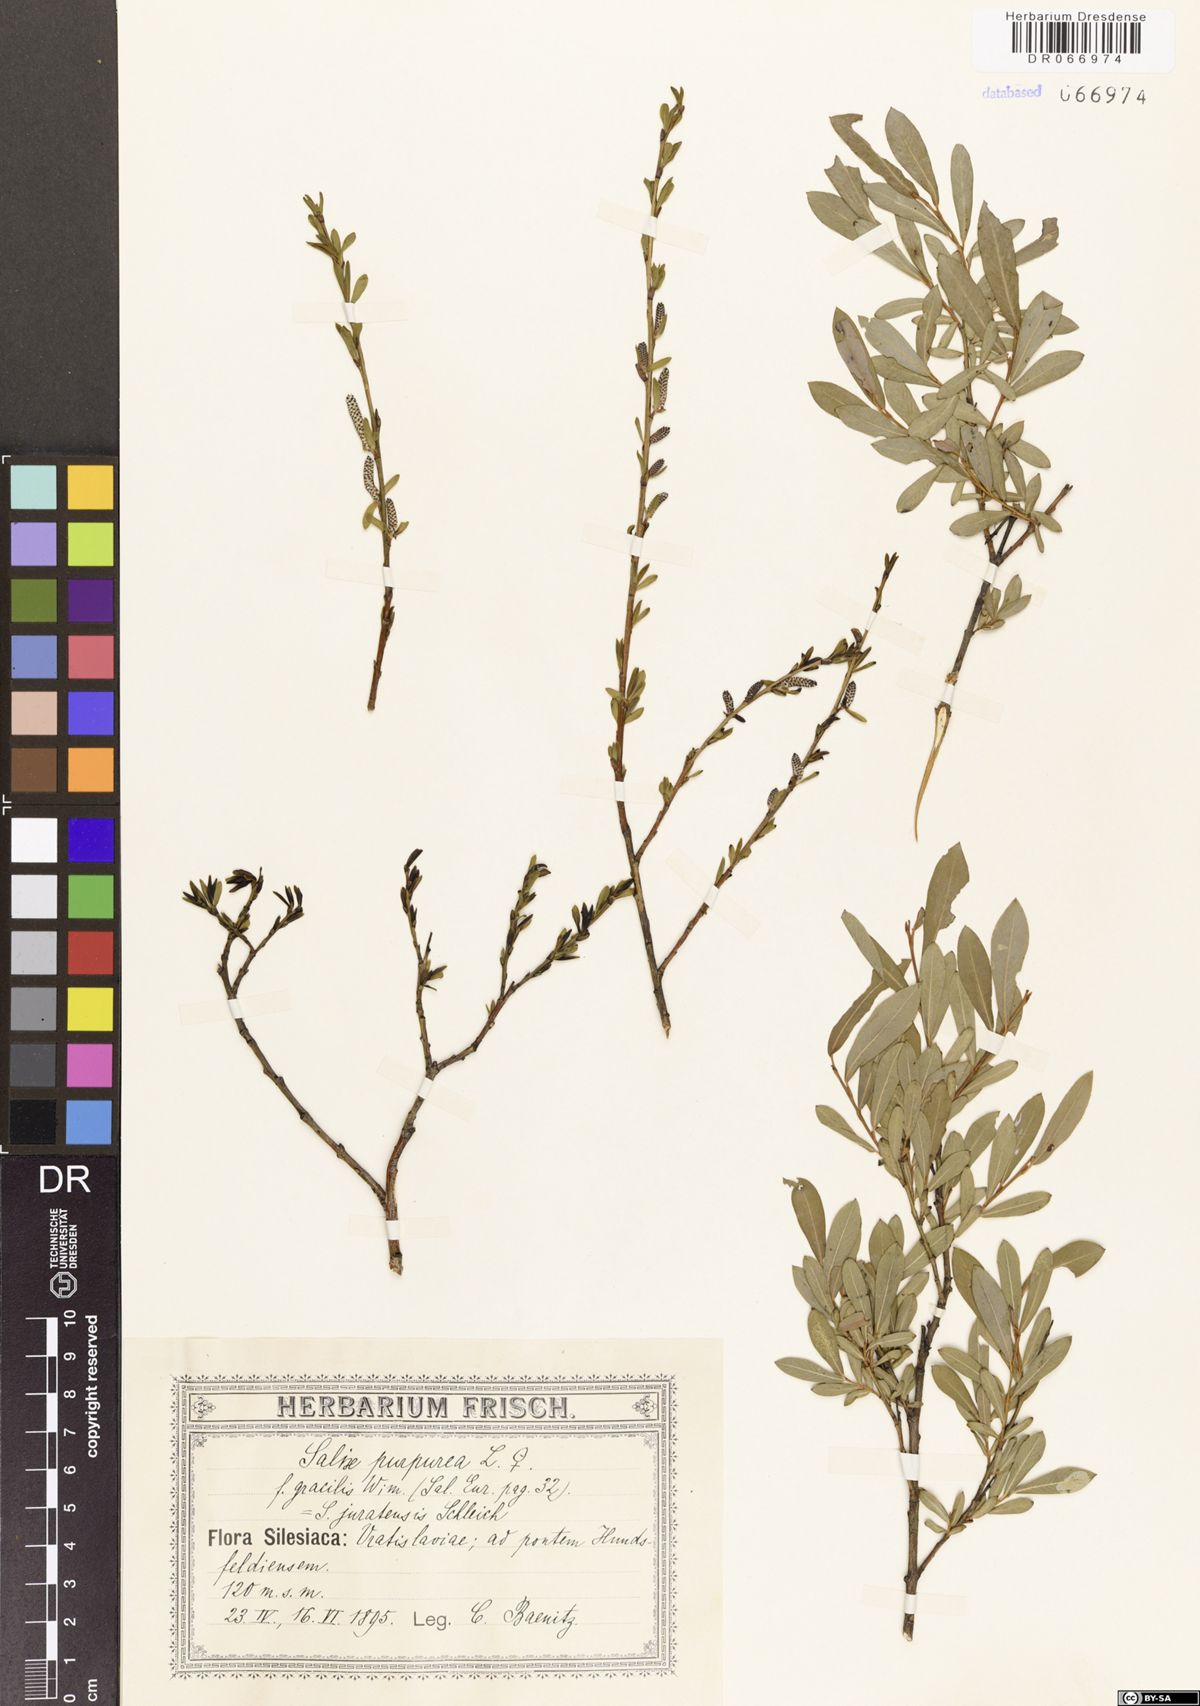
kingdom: Plantae
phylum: Tracheophyta
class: Magnoliopsida
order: Malpighiales
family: Salicaceae
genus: Salix
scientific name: Salix purpurea
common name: Purple willow
